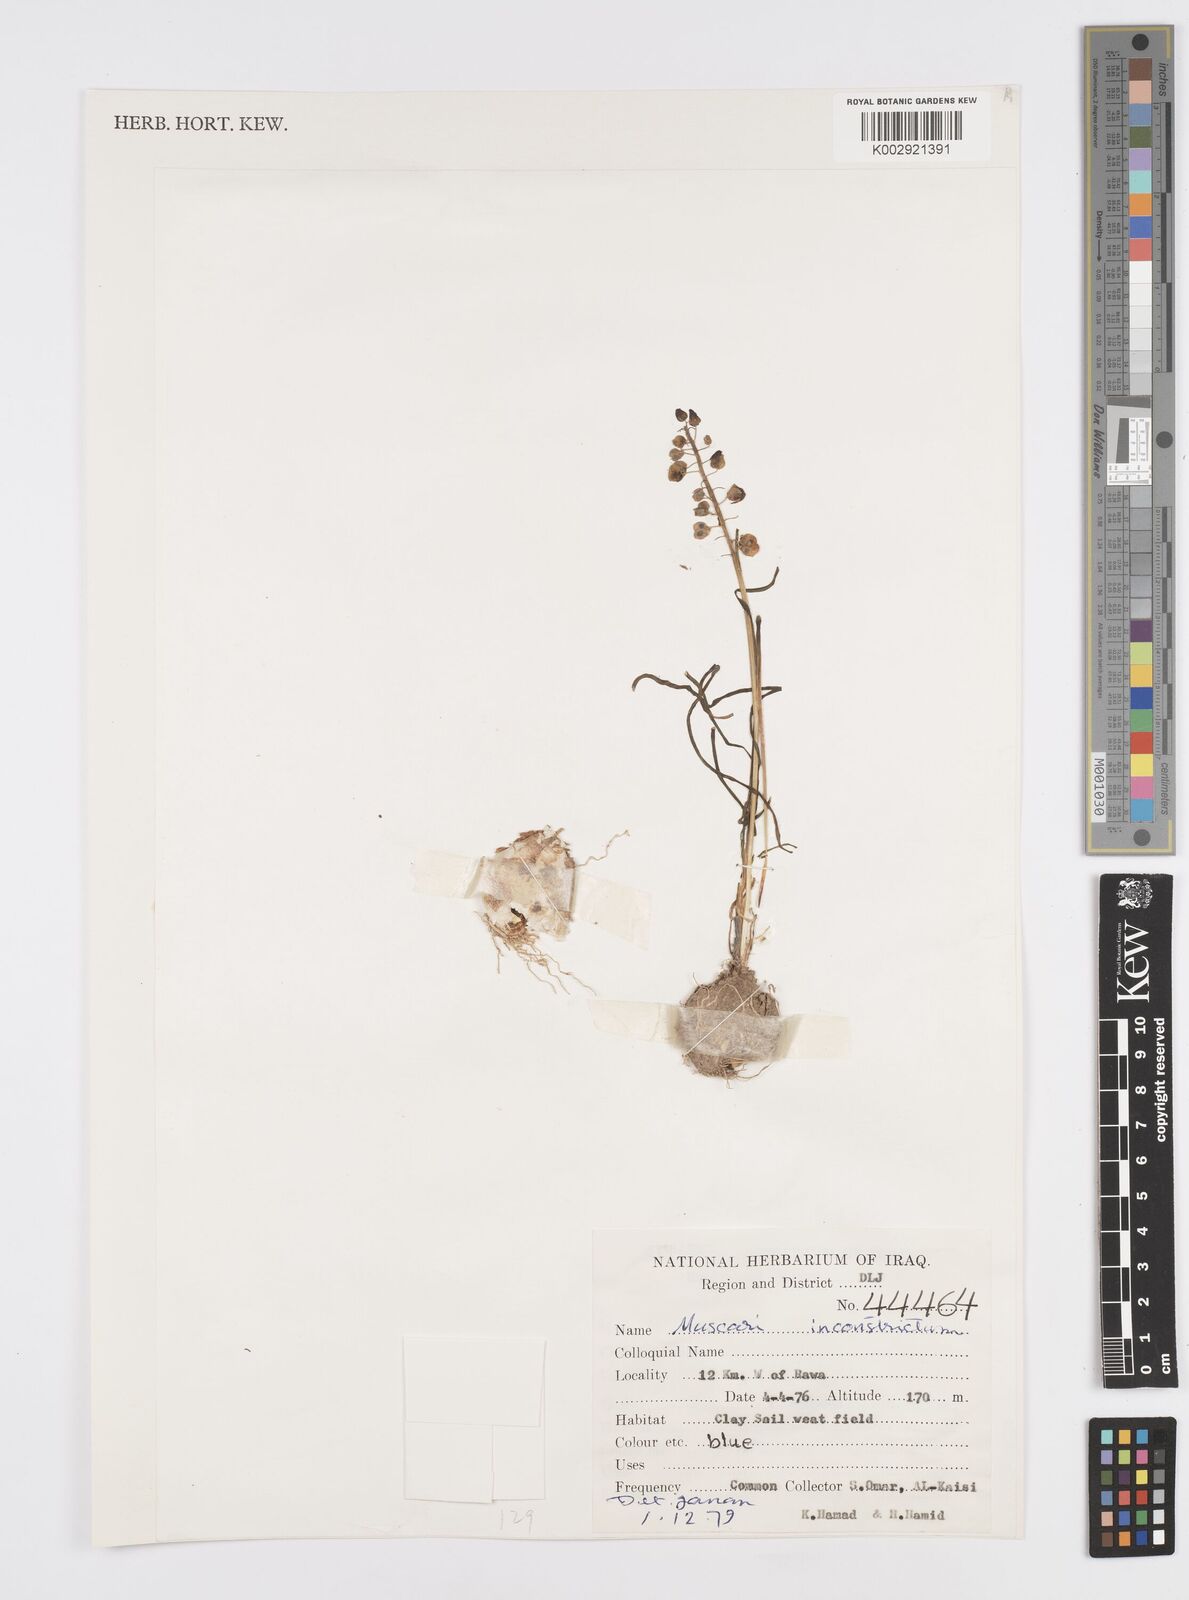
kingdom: Plantae
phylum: Tracheophyta
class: Liliopsida
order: Asparagales
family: Asparagaceae
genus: Muscari
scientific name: Muscari inconstrictum
